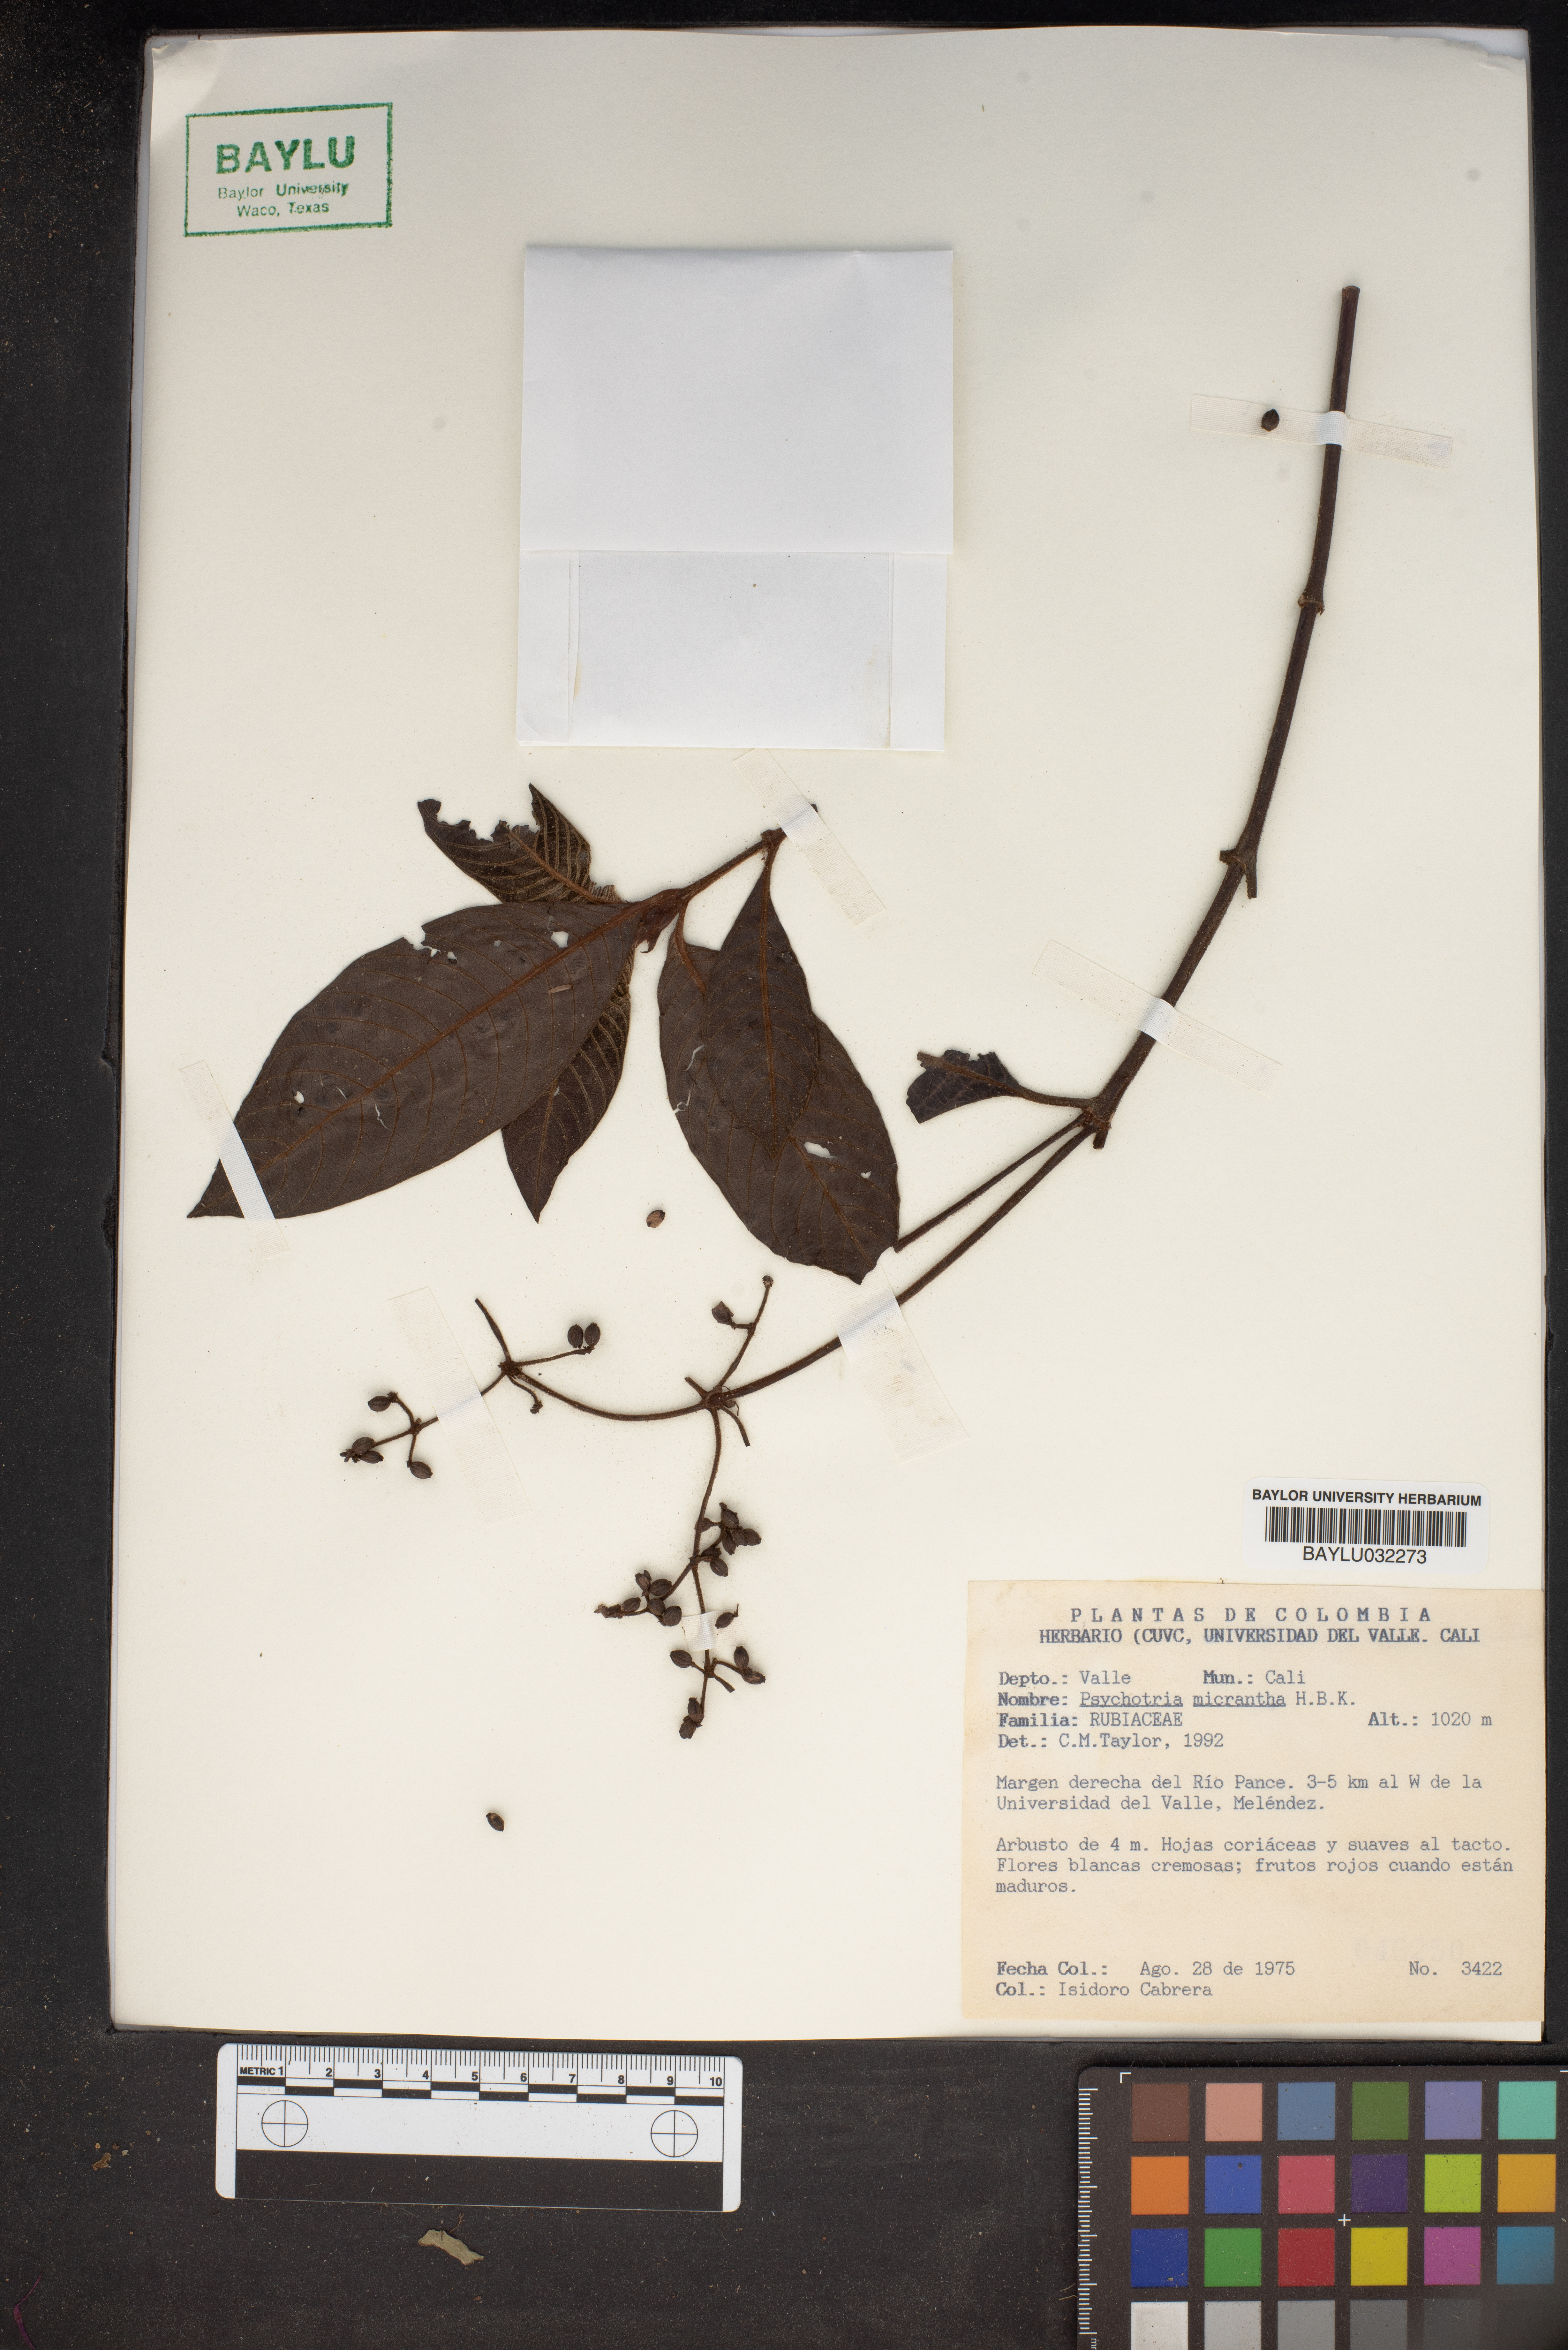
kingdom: Plantae
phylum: Tracheophyta
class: Magnoliopsida
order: Gentianales
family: Rubiaceae
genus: Psychotria
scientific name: Psychotria micrantha
